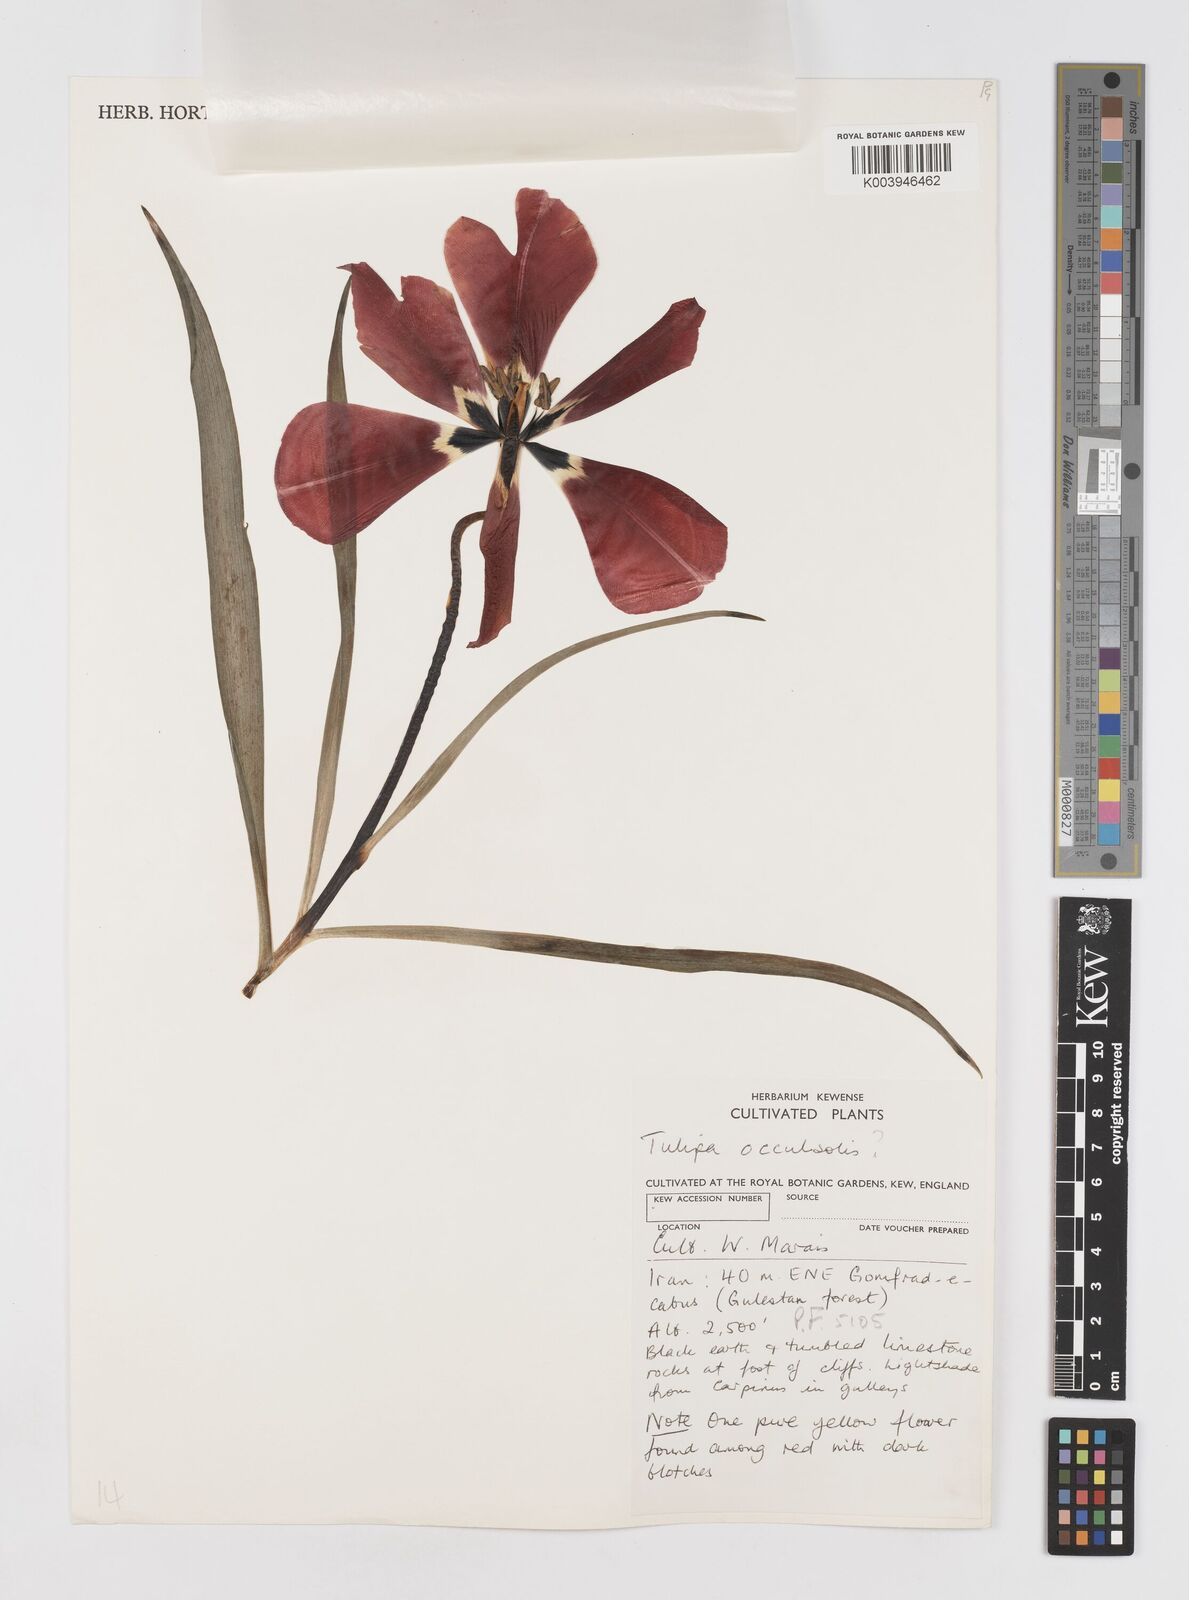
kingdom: Plantae
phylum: Tracheophyta
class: Liliopsida
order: Liliales
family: Liliaceae
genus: Tulipa
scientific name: Tulipa ingens
